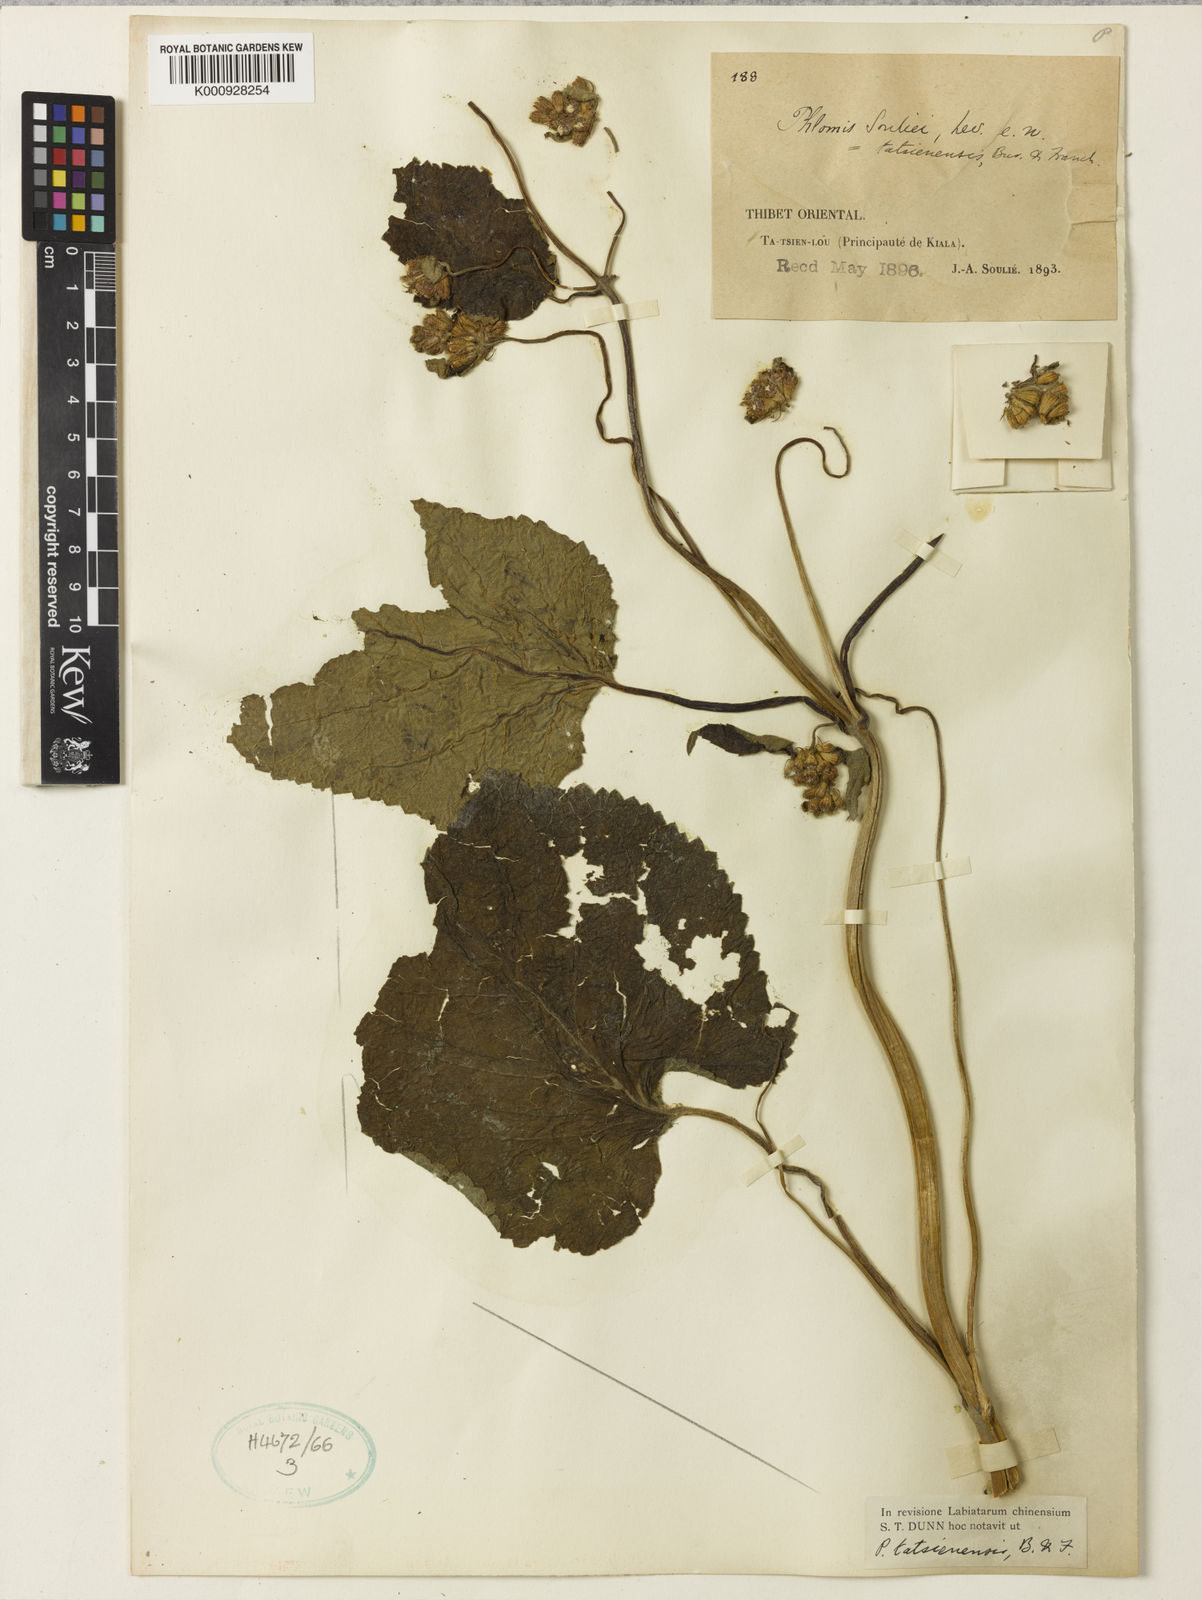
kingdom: Plantae
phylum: Tracheophyta
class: Magnoliopsida
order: Lamiales
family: Lamiaceae
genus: Phlomoides
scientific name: Phlomoides tatsienensis
